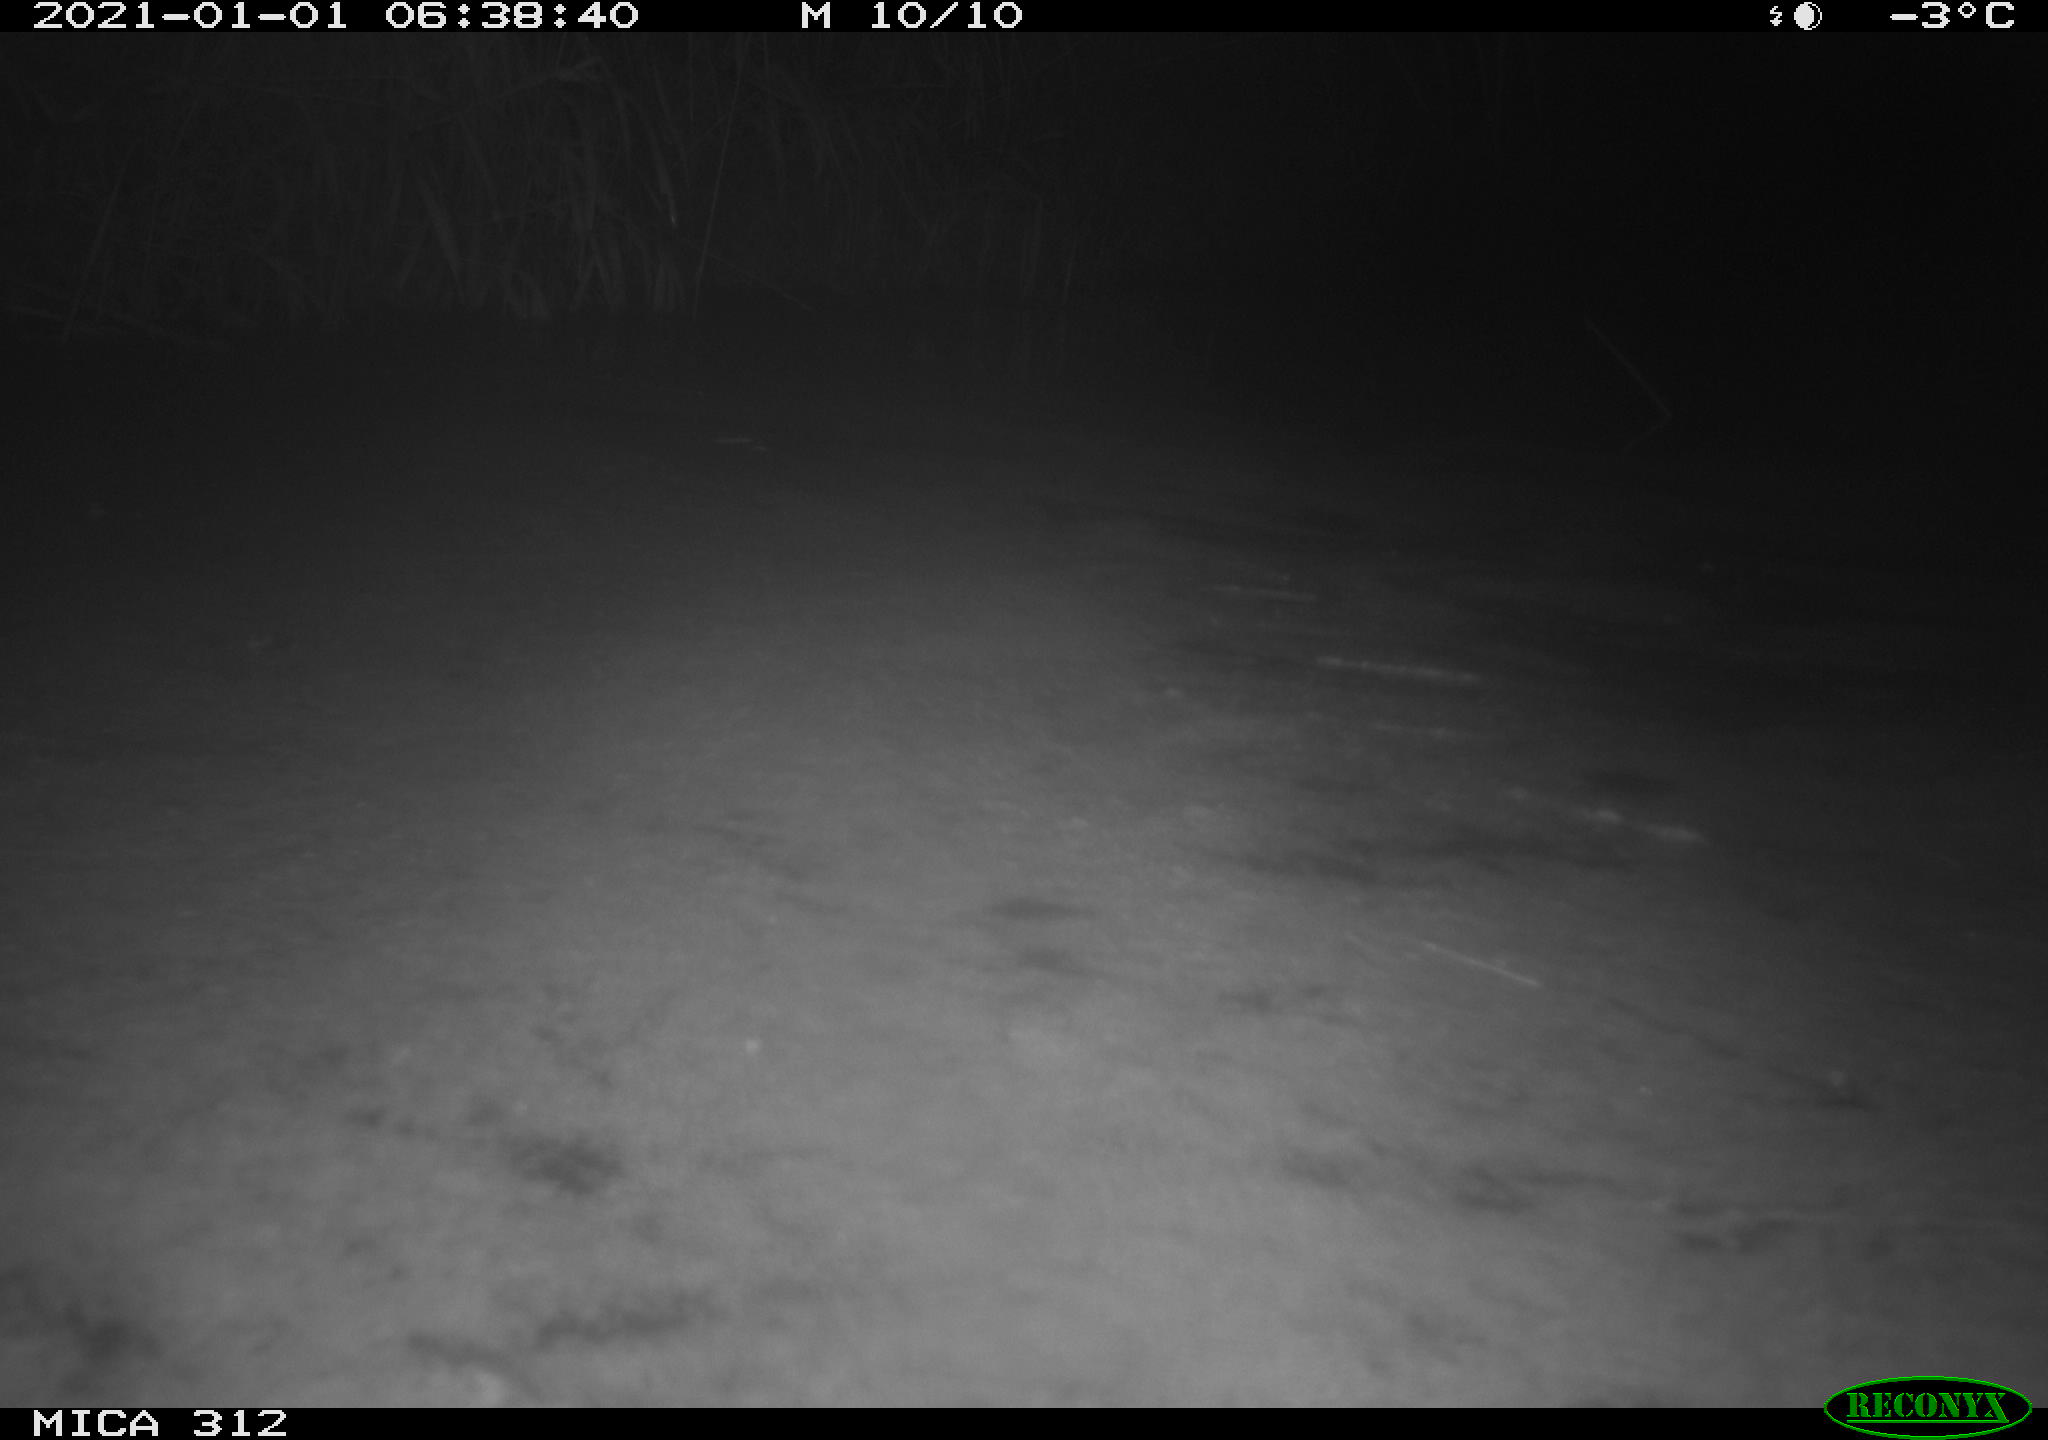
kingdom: Animalia
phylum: Chordata
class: Mammalia
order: Rodentia
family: Muridae
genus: Rattus
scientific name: Rattus norvegicus
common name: Brown rat
